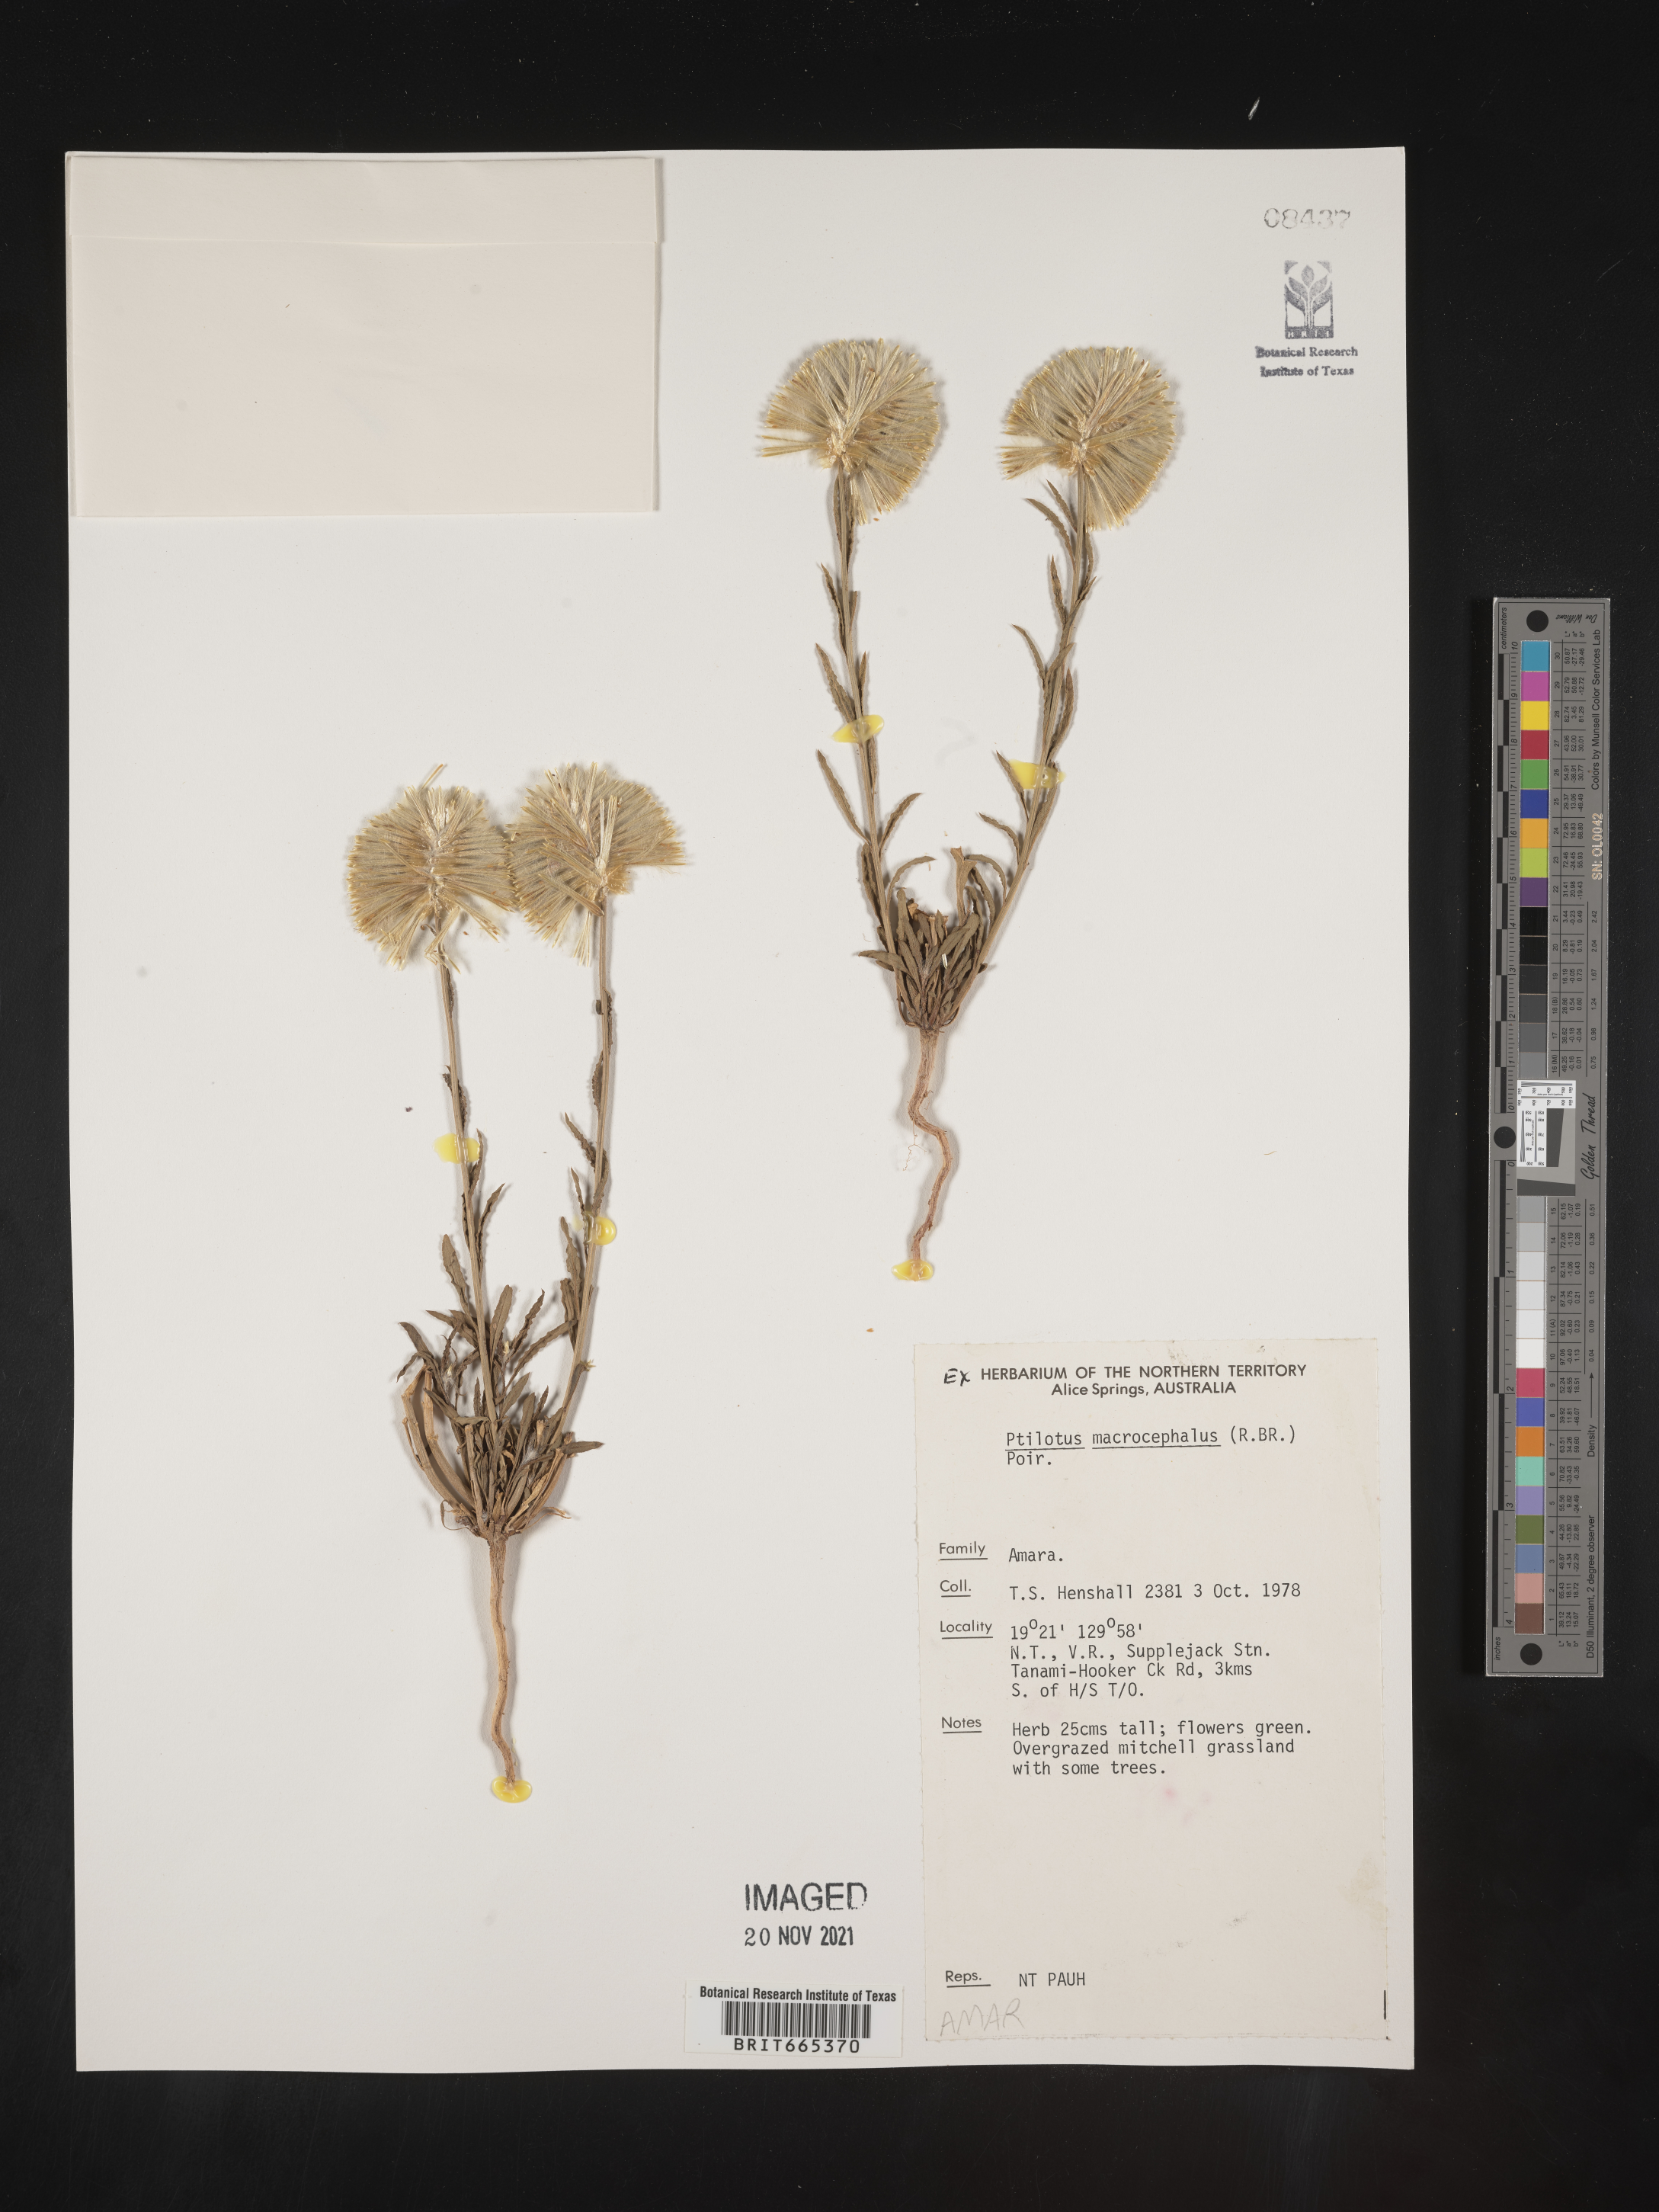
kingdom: Plantae
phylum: Tracheophyta
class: Magnoliopsida
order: Caryophyllales
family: Amaranthaceae
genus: Ptilotus
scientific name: Ptilotus
